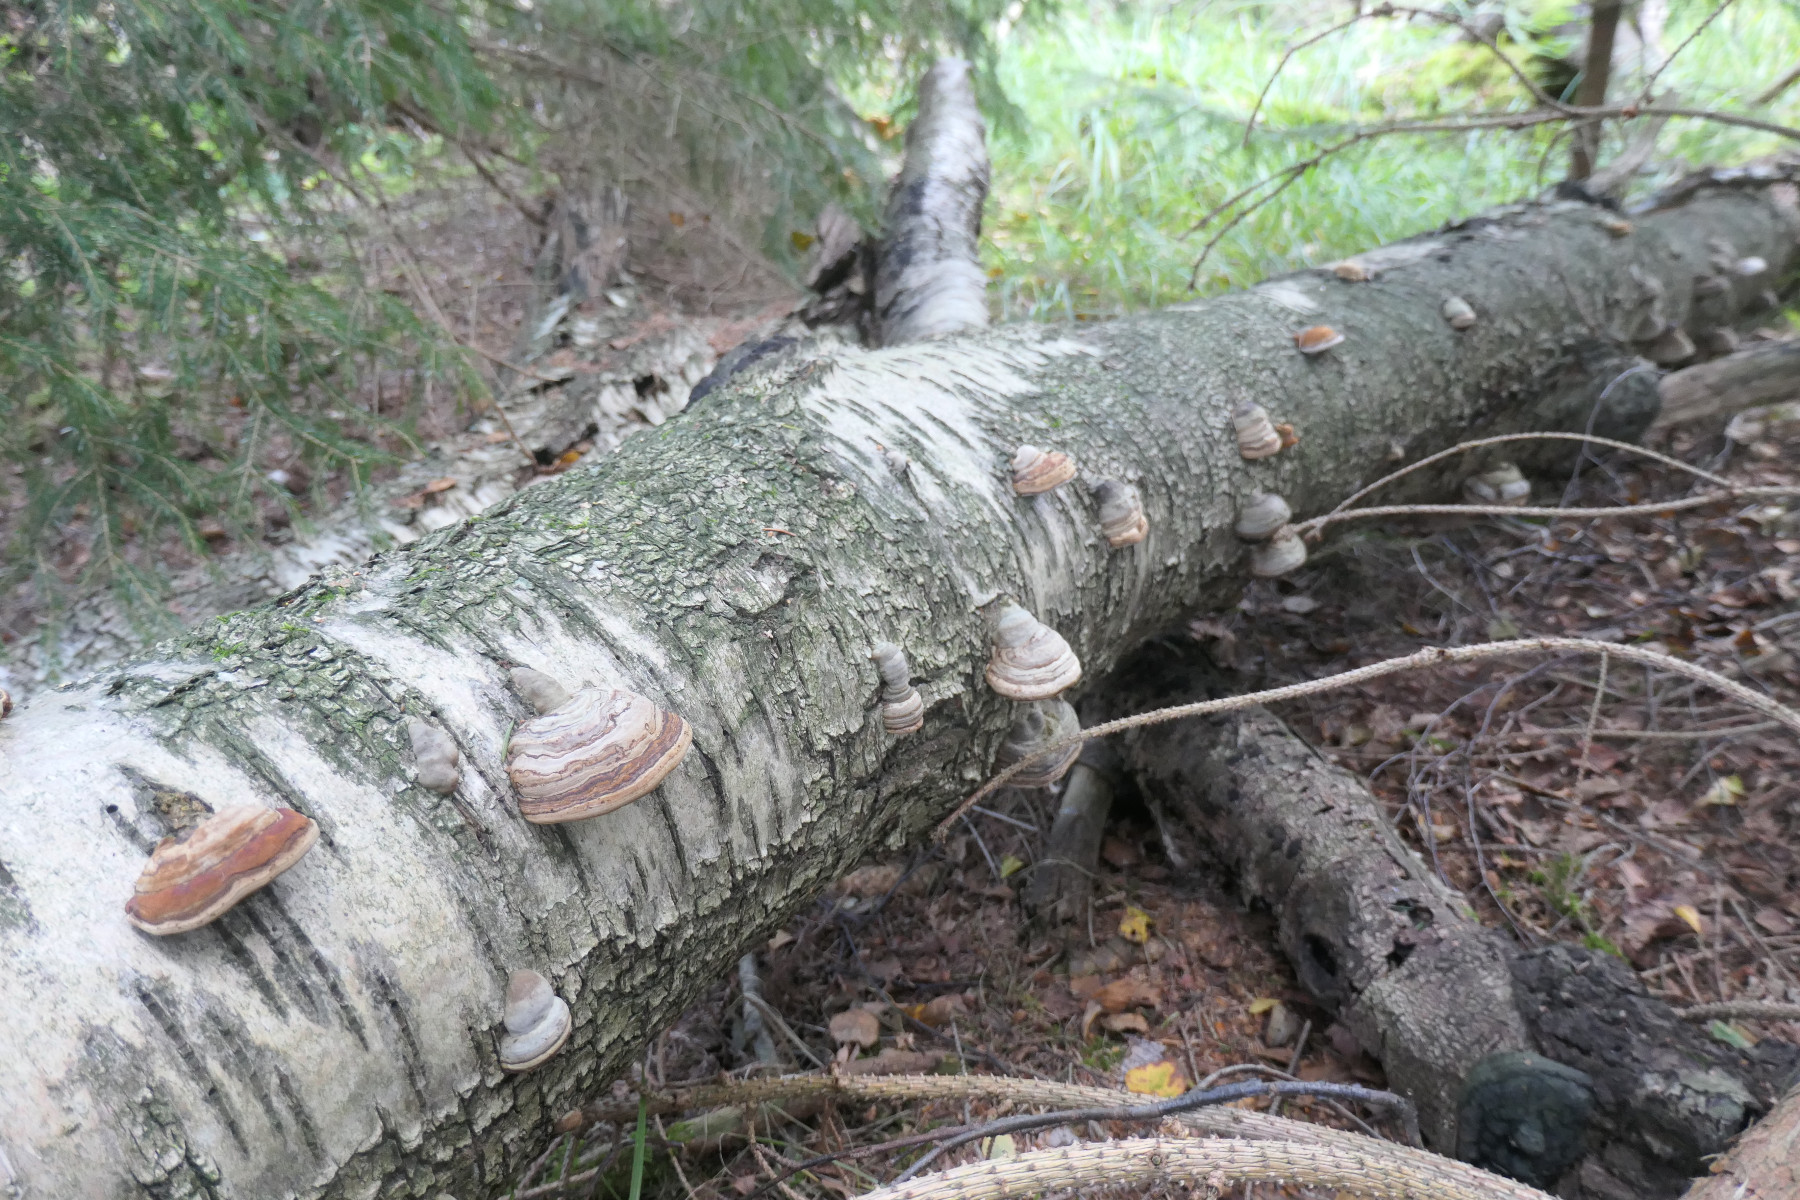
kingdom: Fungi
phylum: Basidiomycota
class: Agaricomycetes
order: Polyporales
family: Polyporaceae
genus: Fomes
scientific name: Fomes fomentarius
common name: tøndersvamp
